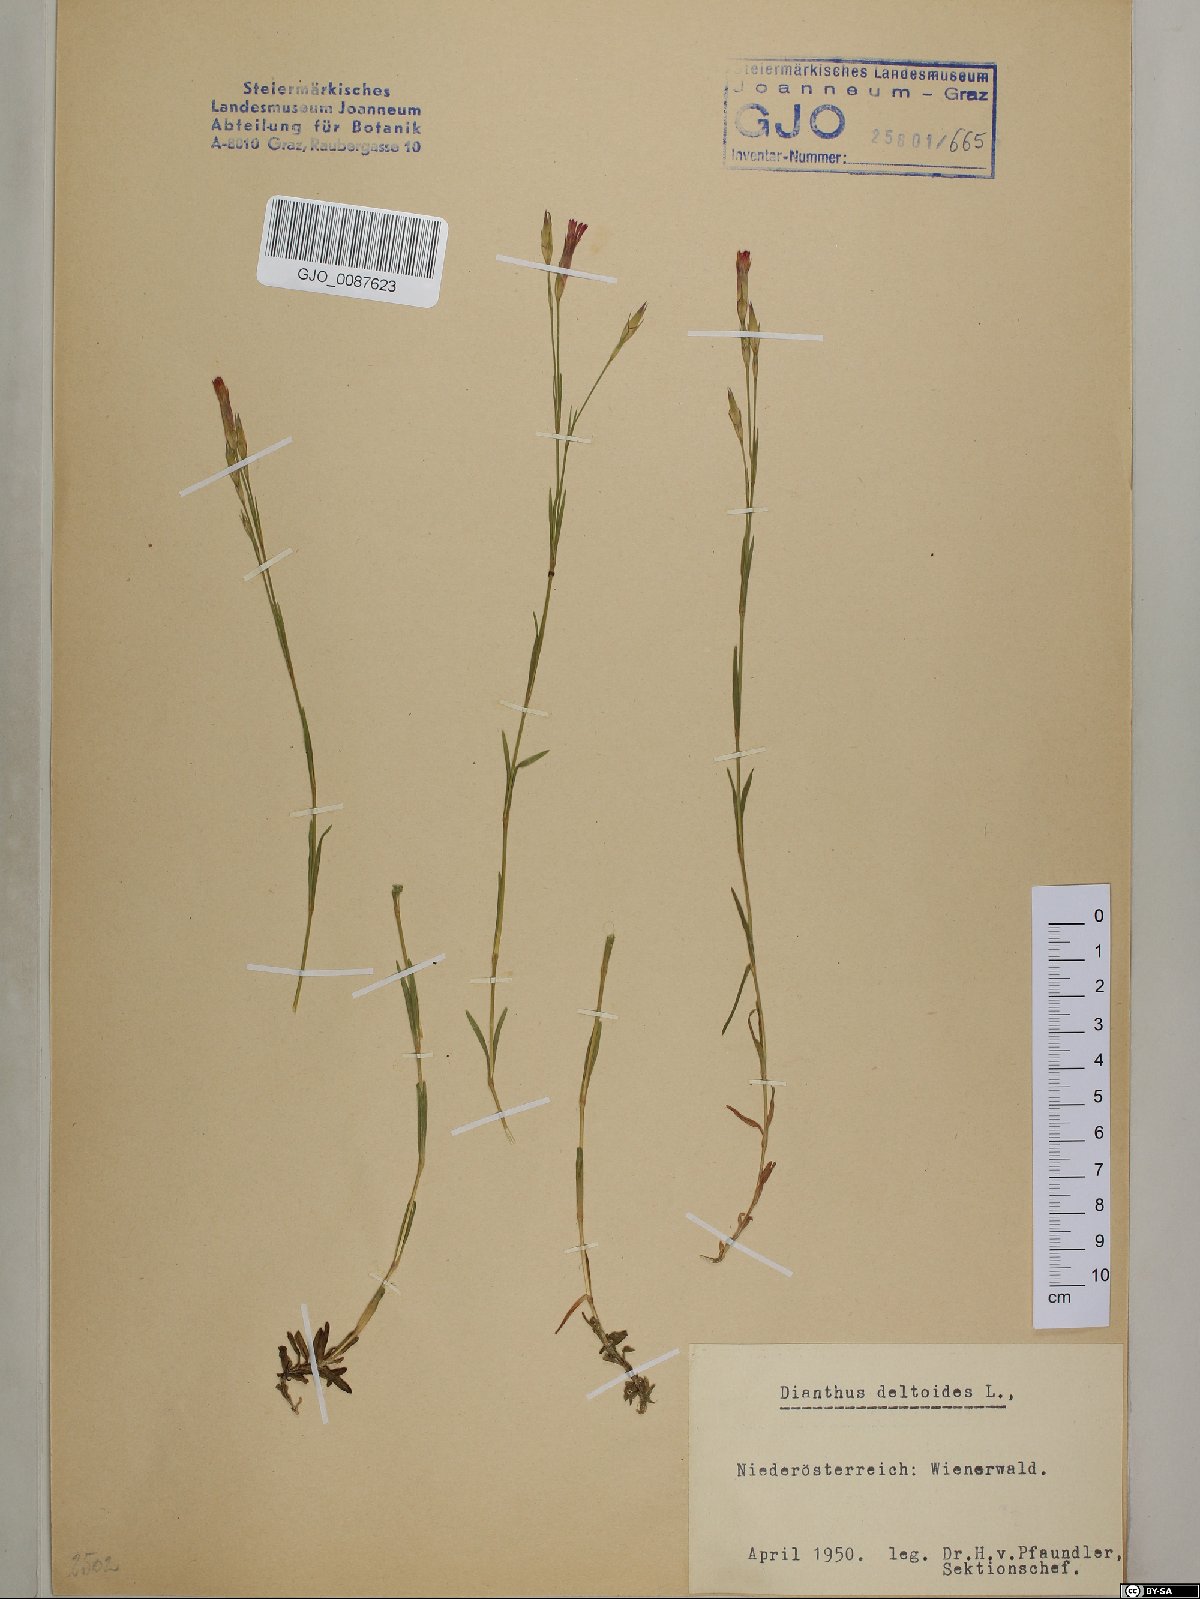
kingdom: Plantae
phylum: Tracheophyta
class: Magnoliopsida
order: Caryophyllales
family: Caryophyllaceae
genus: Dianthus
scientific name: Dianthus deltoides
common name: Maiden pink
